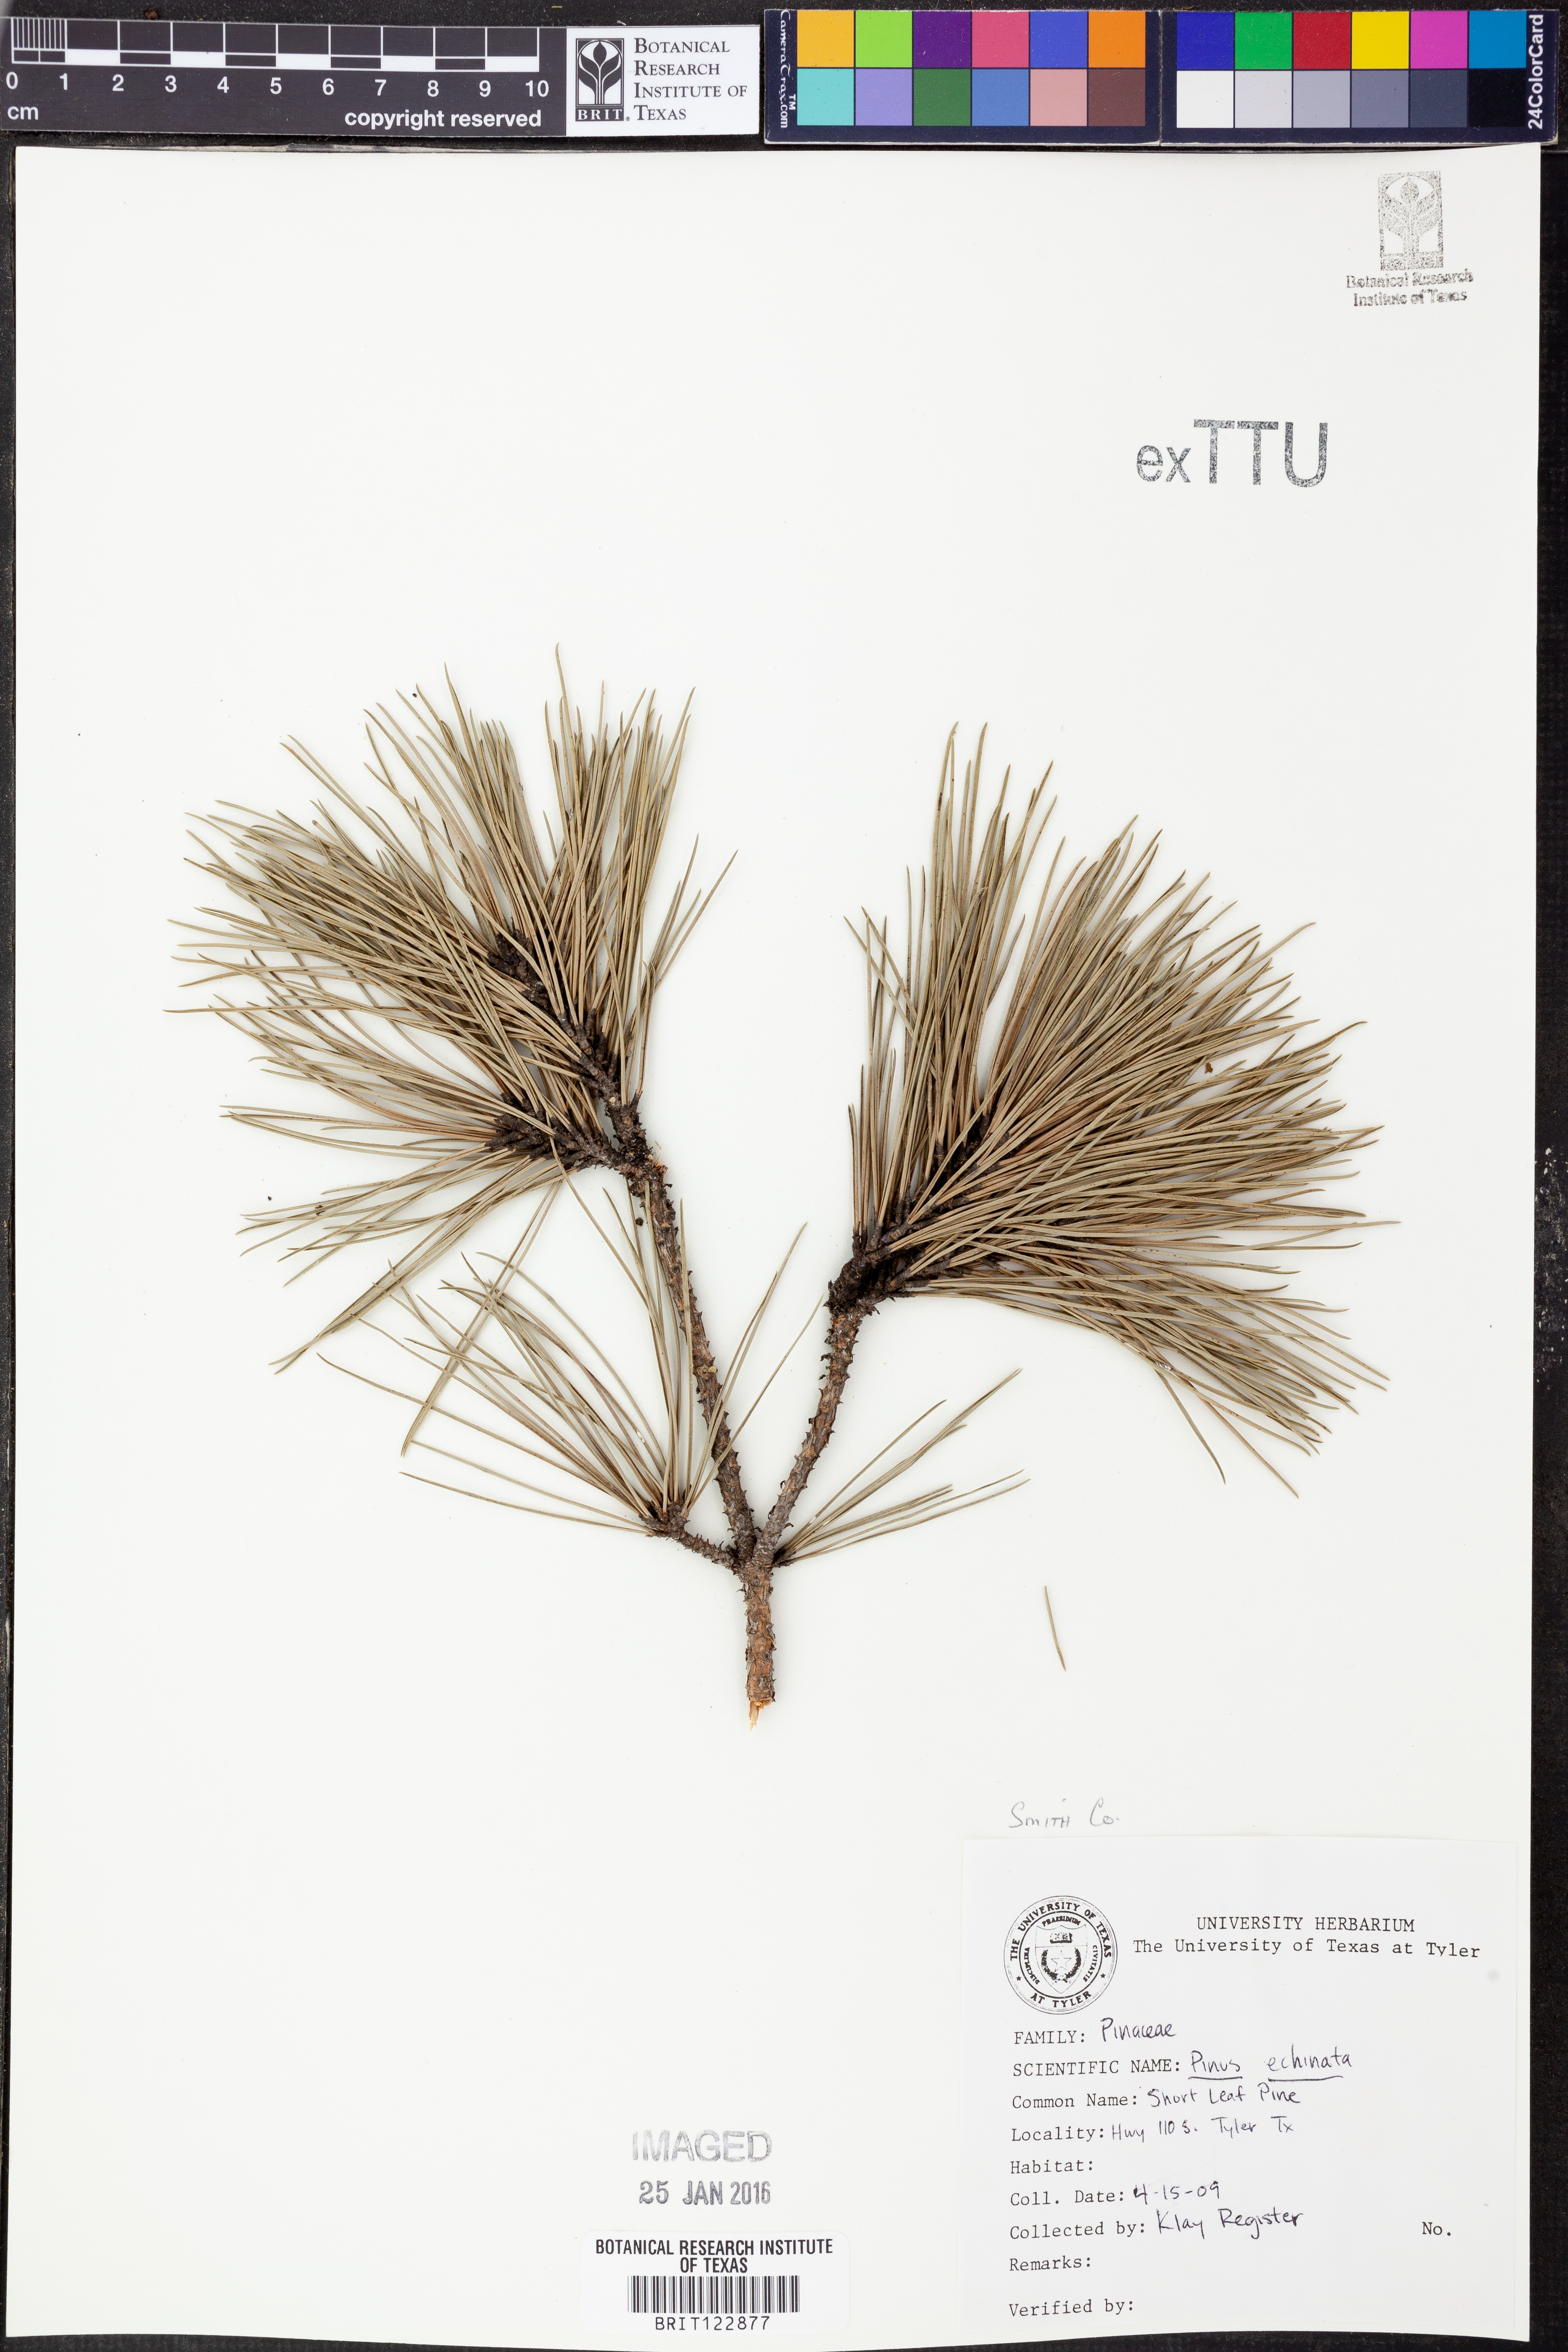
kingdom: Plantae
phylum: Tracheophyta
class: Pinopsida
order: Pinales
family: Pinaceae
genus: Pinus
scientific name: Pinus echinata
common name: Shortleaf pine
